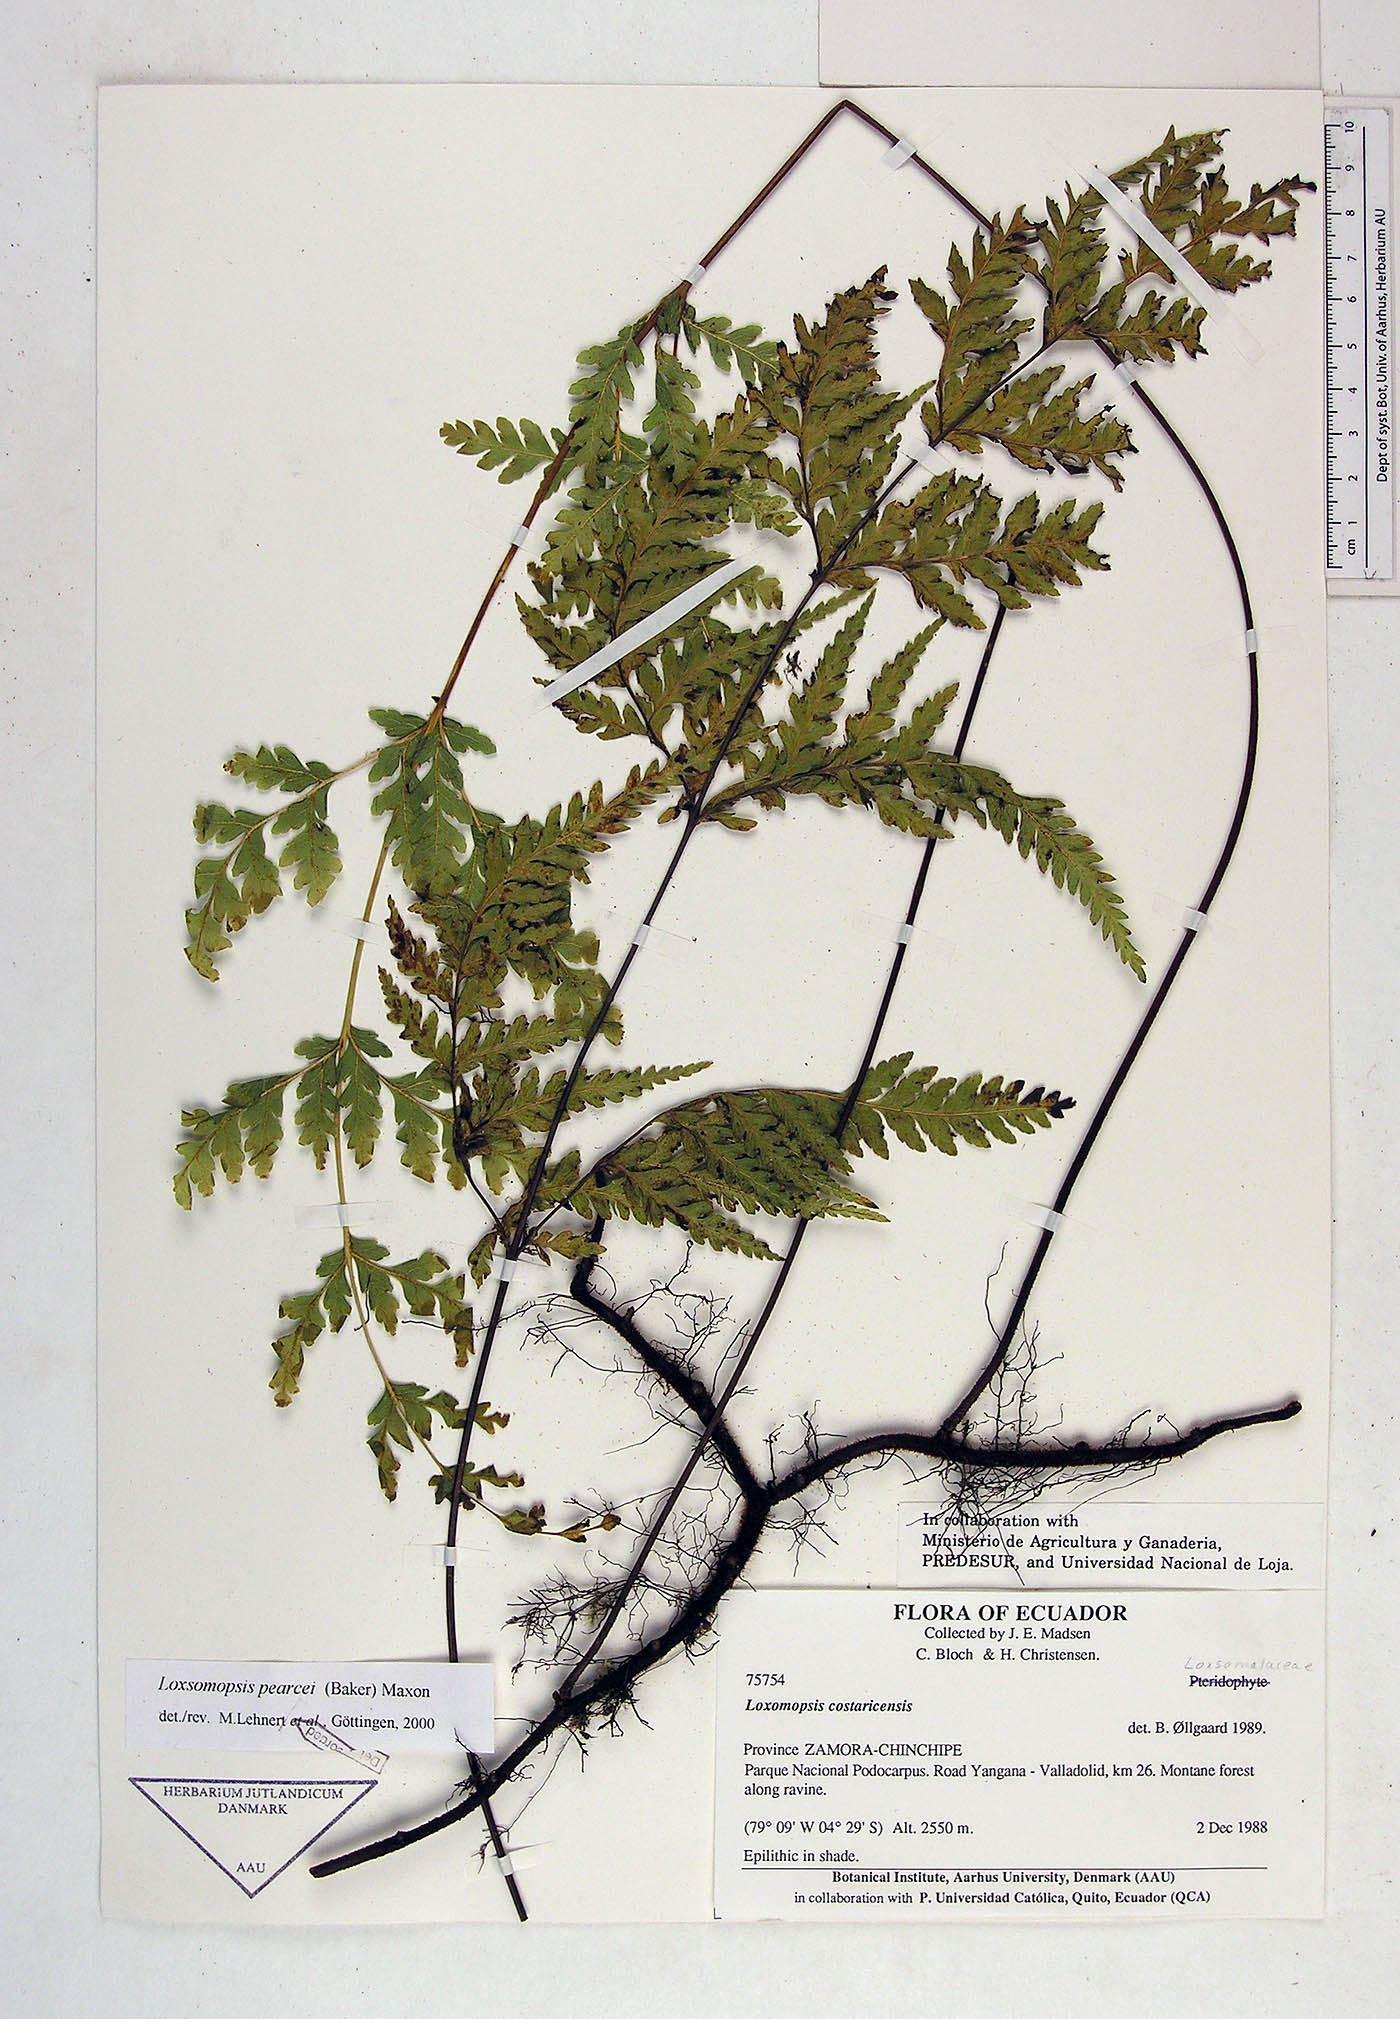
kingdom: Plantae
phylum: Tracheophyta
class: Polypodiopsida
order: Cyatheales
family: Loxsomataceae
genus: Loxsomopsis
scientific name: Loxsomopsis pearcei
